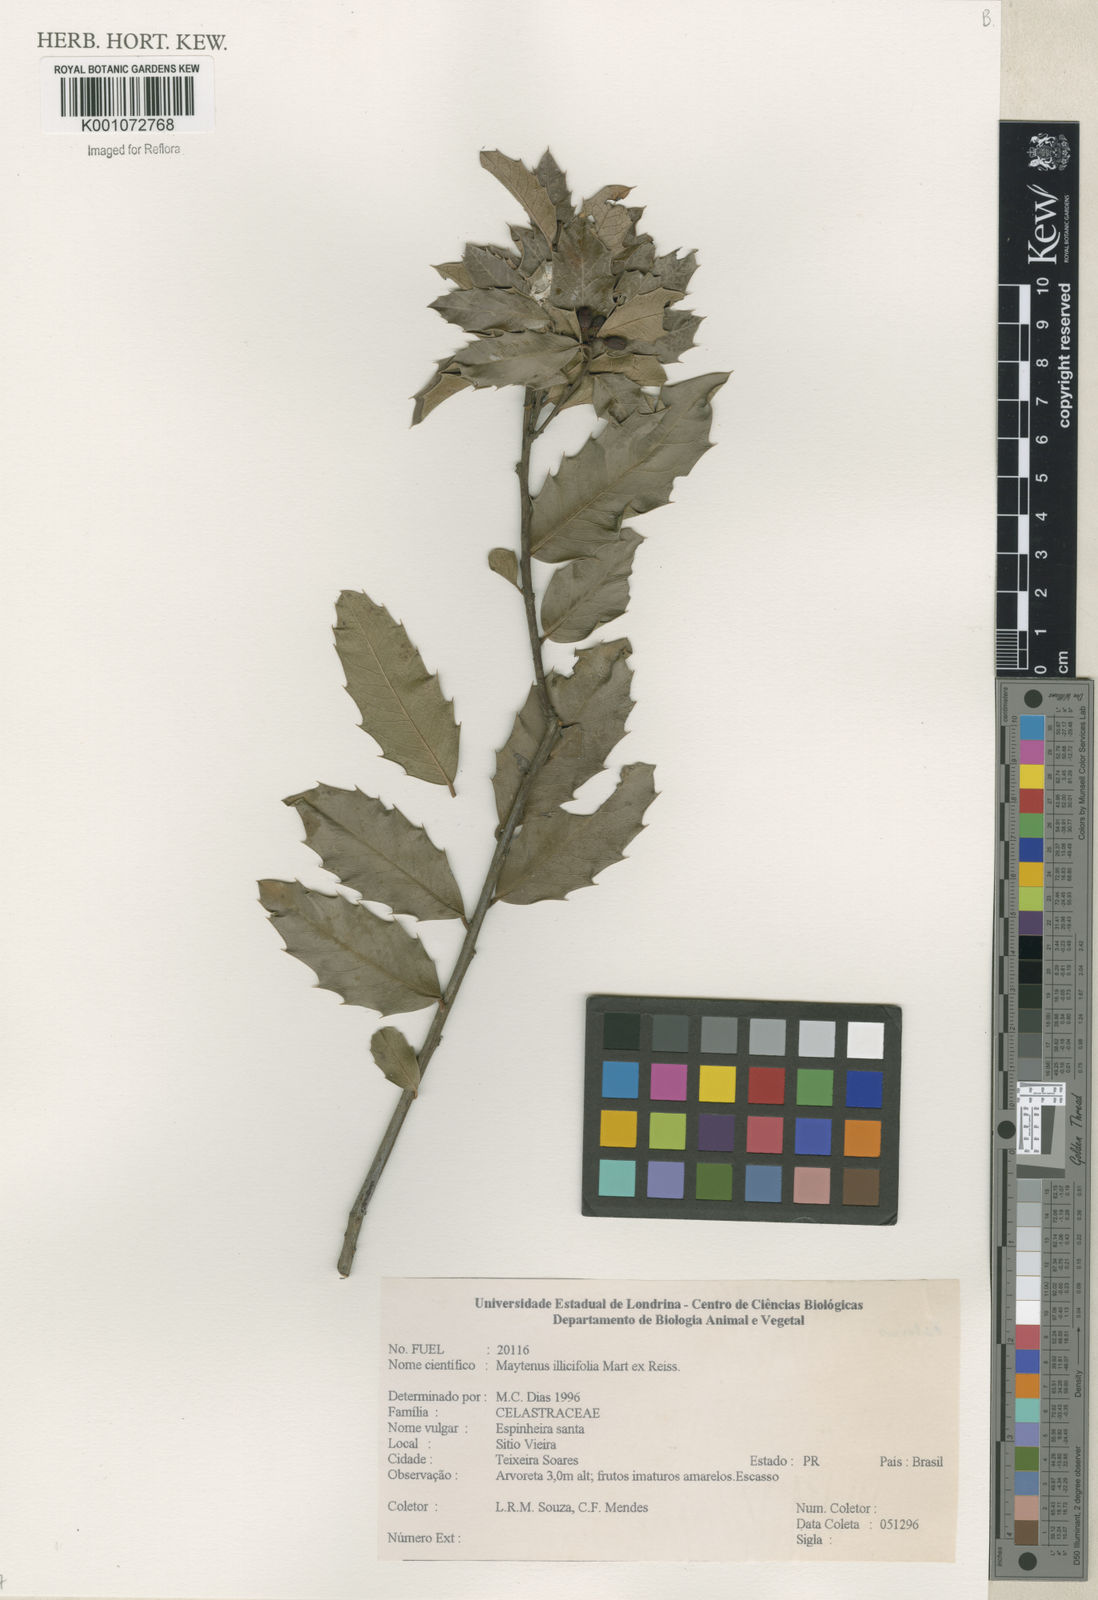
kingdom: Plantae
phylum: Tracheophyta
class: Magnoliopsida
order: Celastrales
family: Celastraceae
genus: Monteverdia
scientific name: Monteverdia ilicifolia
